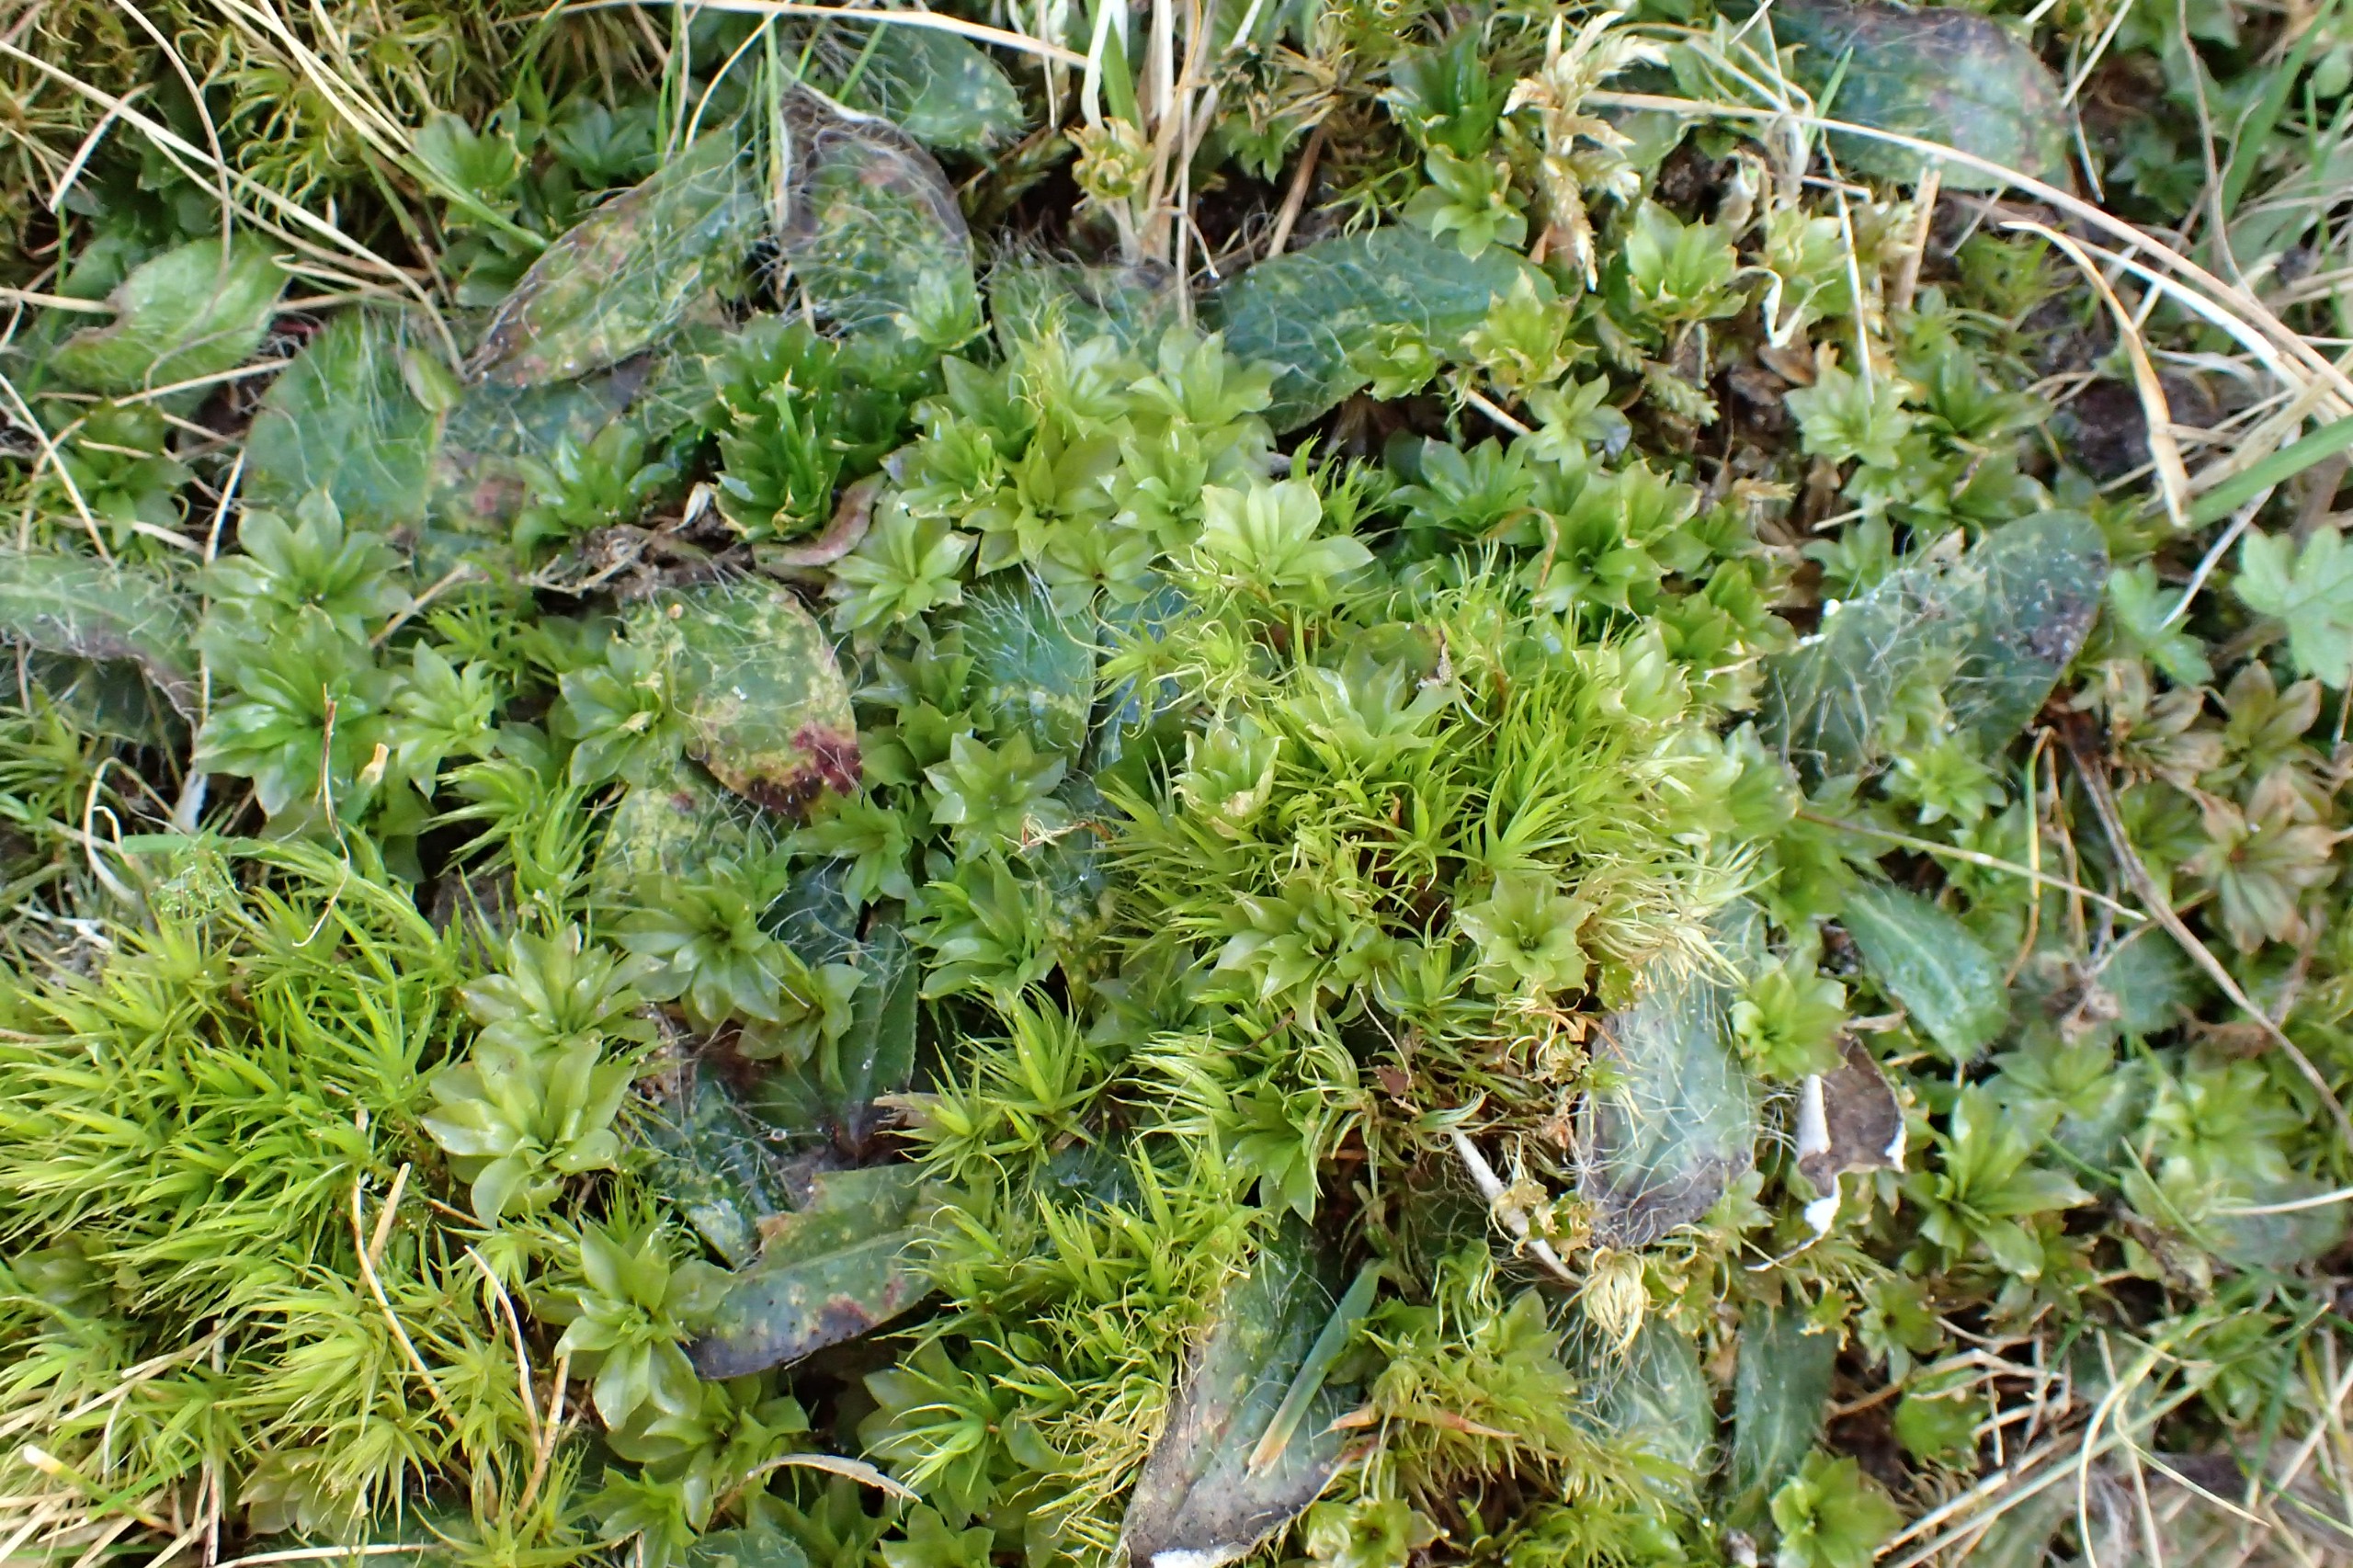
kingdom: Plantae
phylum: Bryophyta
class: Bryopsida
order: Bryales
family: Bryaceae
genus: Rhodobryum
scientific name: Rhodobryum roseum
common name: Stor rosetmos
